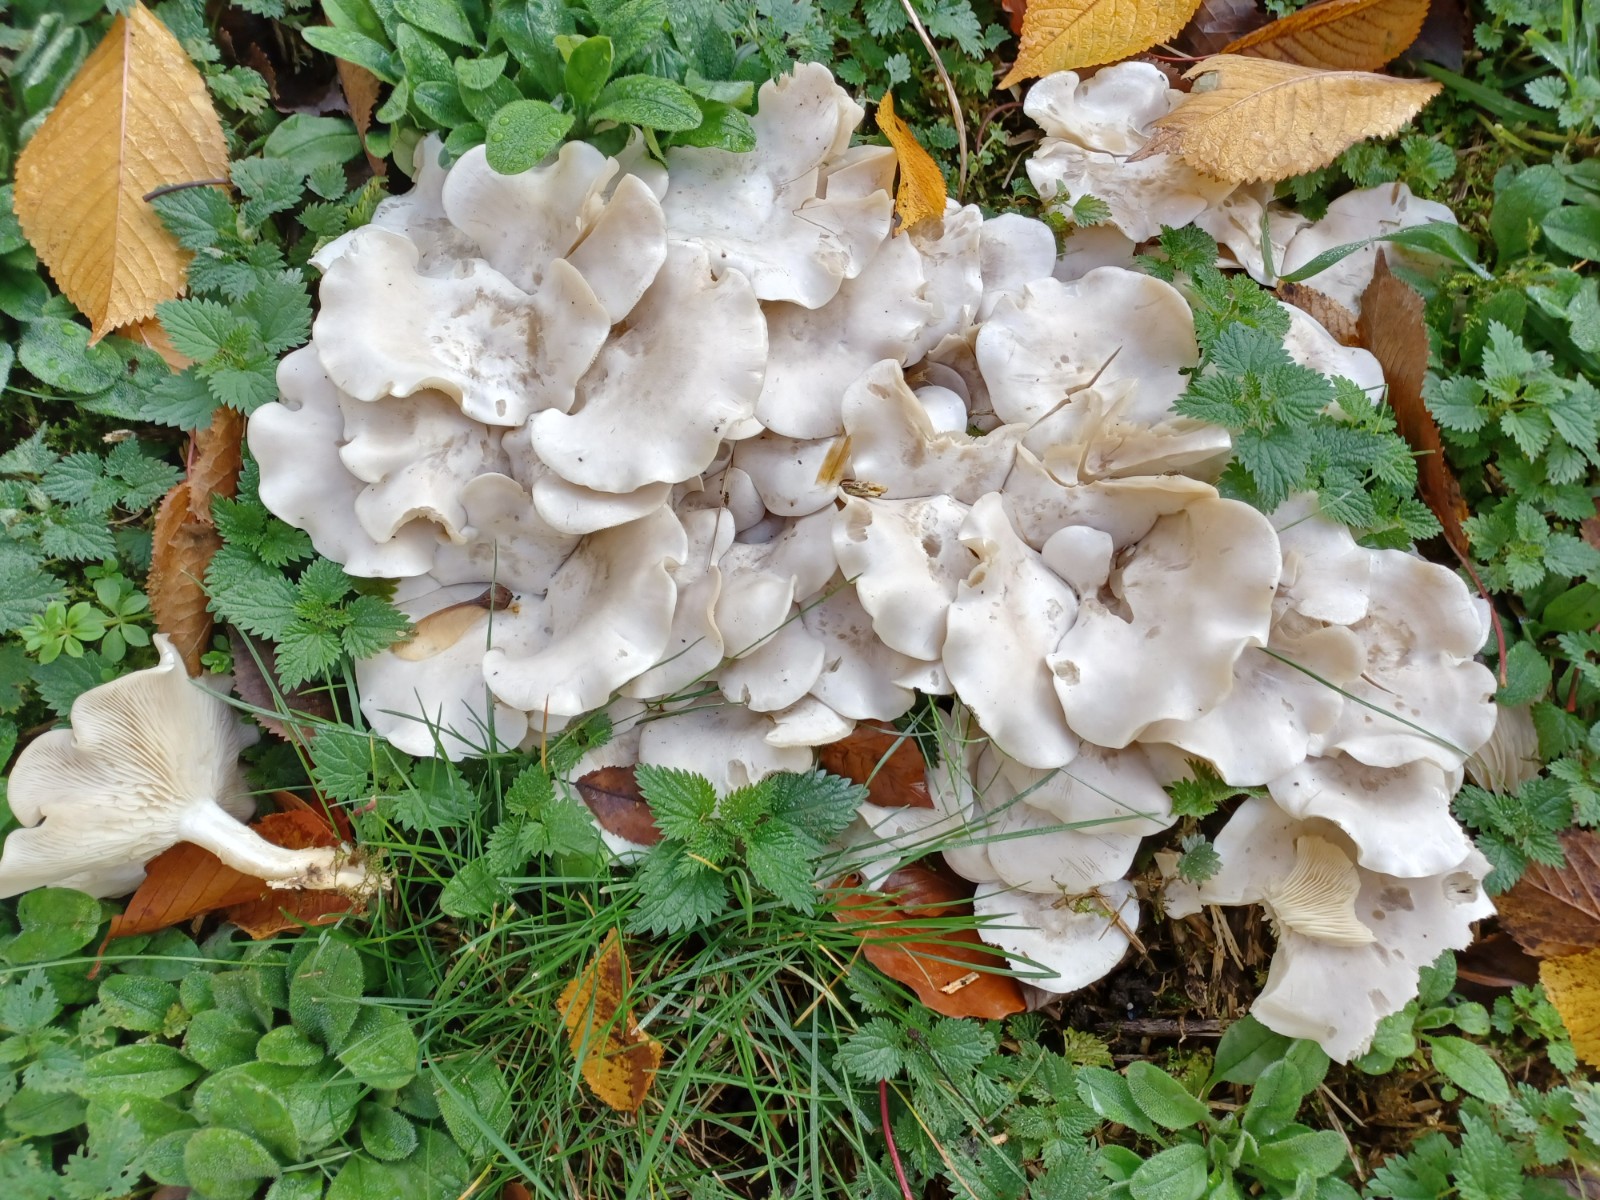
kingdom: Fungi
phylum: Basidiomycota
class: Agaricomycetes
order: Agaricales
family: Tricholomataceae
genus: Leucocybe
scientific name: Leucocybe connata
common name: knippe-tragthat
